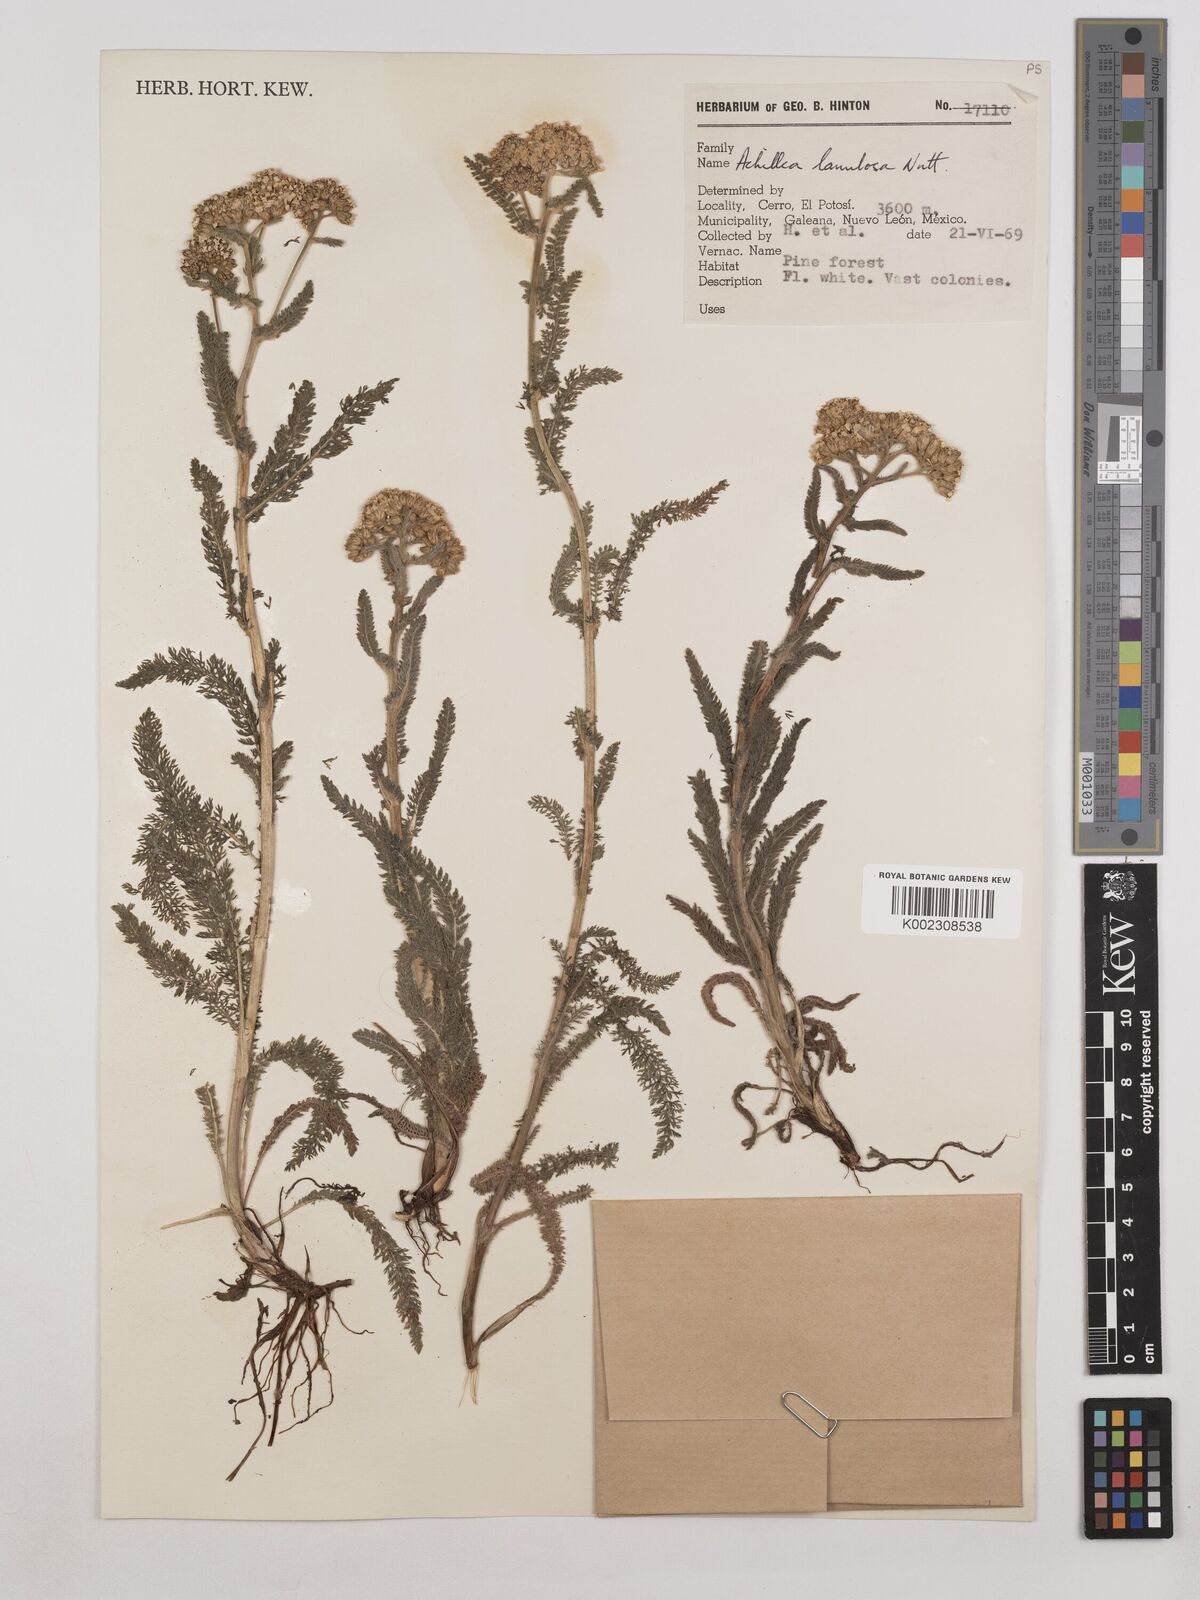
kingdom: Plantae
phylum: Tracheophyta
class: Magnoliopsida
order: Asterales
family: Asteraceae
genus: Achillea
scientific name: Achillea millefolium
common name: Yarrow
